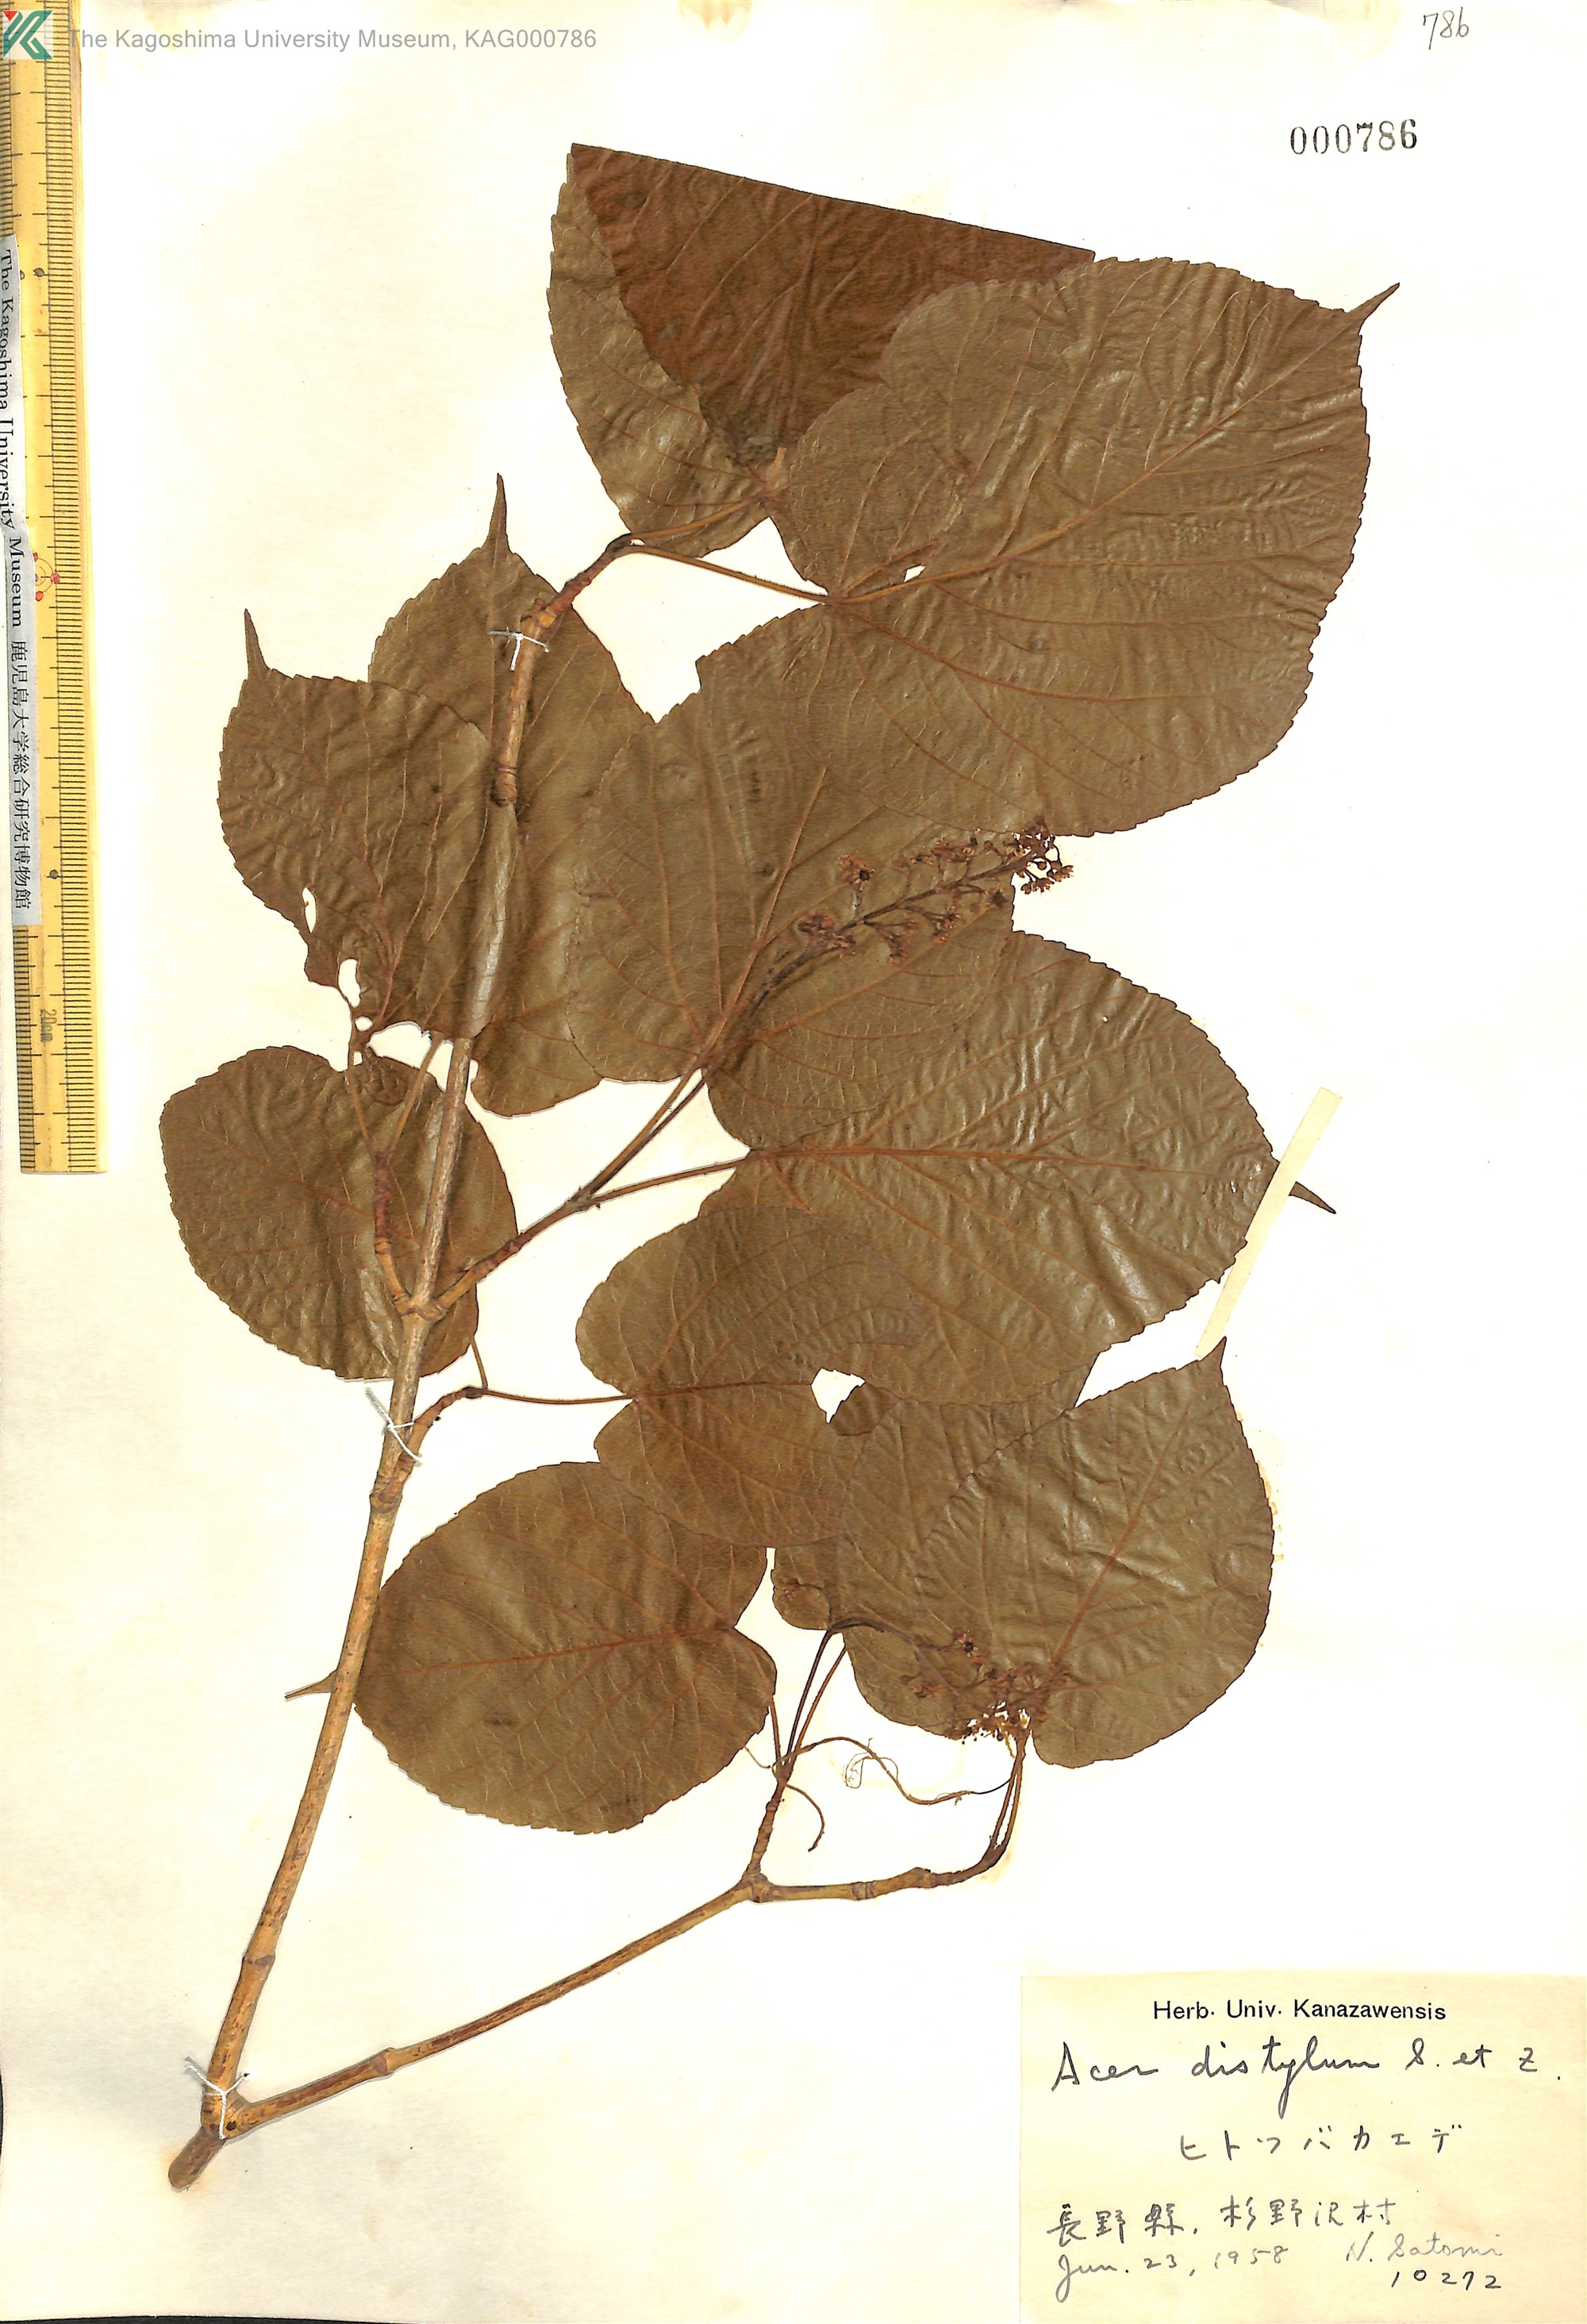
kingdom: Plantae
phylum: Tracheophyta
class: Magnoliopsida
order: Sapindales
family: Sapindaceae
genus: Acer
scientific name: Acer distylum
